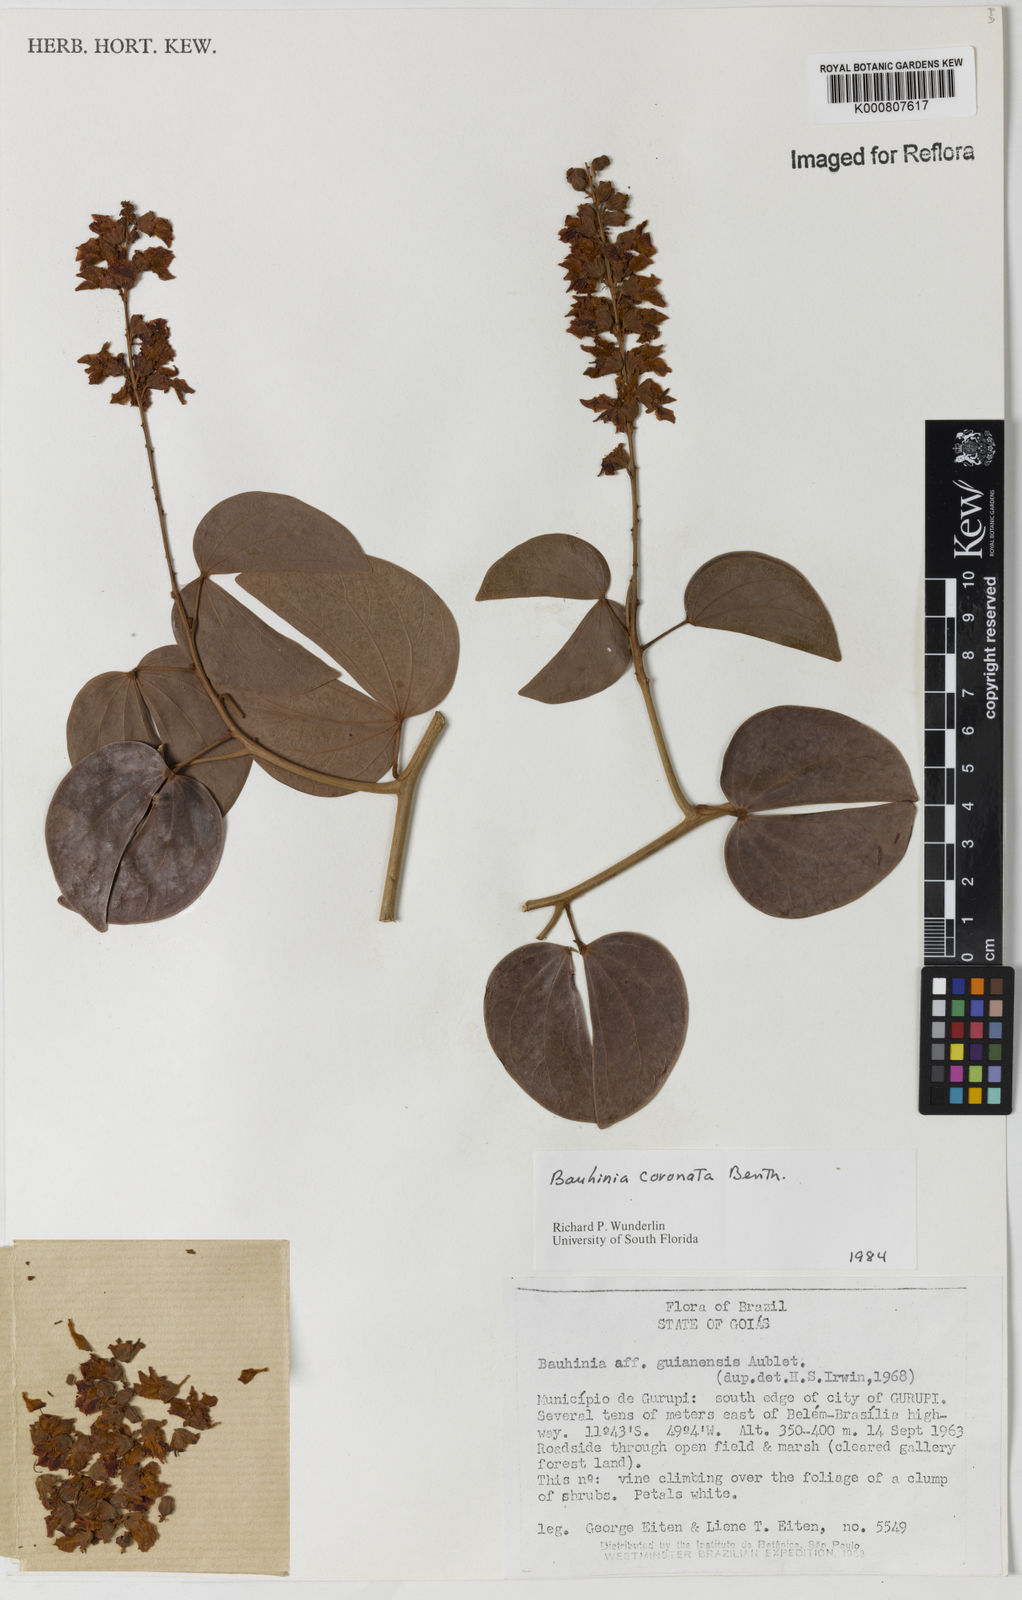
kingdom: Plantae
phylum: Tracheophyta
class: Magnoliopsida
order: Fabales
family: Fabaceae
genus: Schnella
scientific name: Schnella outimouta
